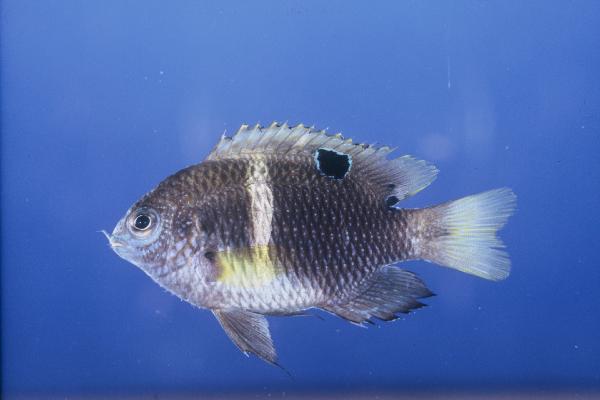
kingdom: Animalia
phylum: Chordata
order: Perciformes
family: Pomacentridae
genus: Plectroglyphidodon
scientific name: Plectroglyphidodon leucozonus
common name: White-band damsel
